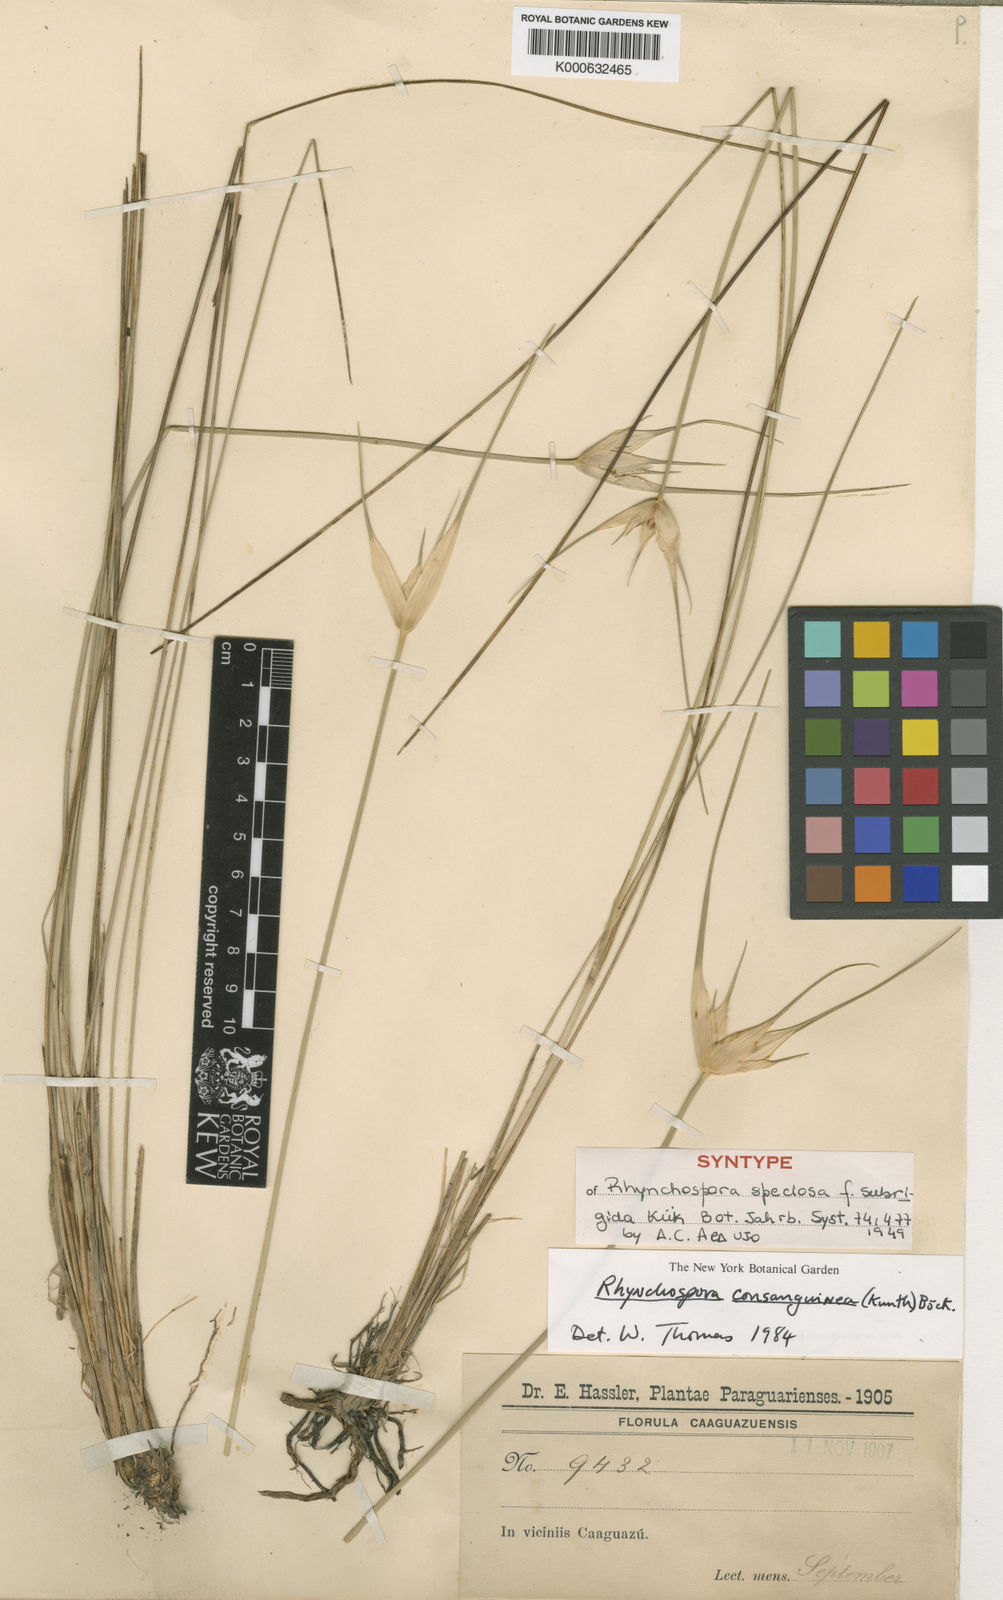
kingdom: Plantae
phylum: Tracheophyta
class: Liliopsida
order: Poales
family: Cyperaceae
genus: Rhynchospora
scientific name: Rhynchospora speciosa
